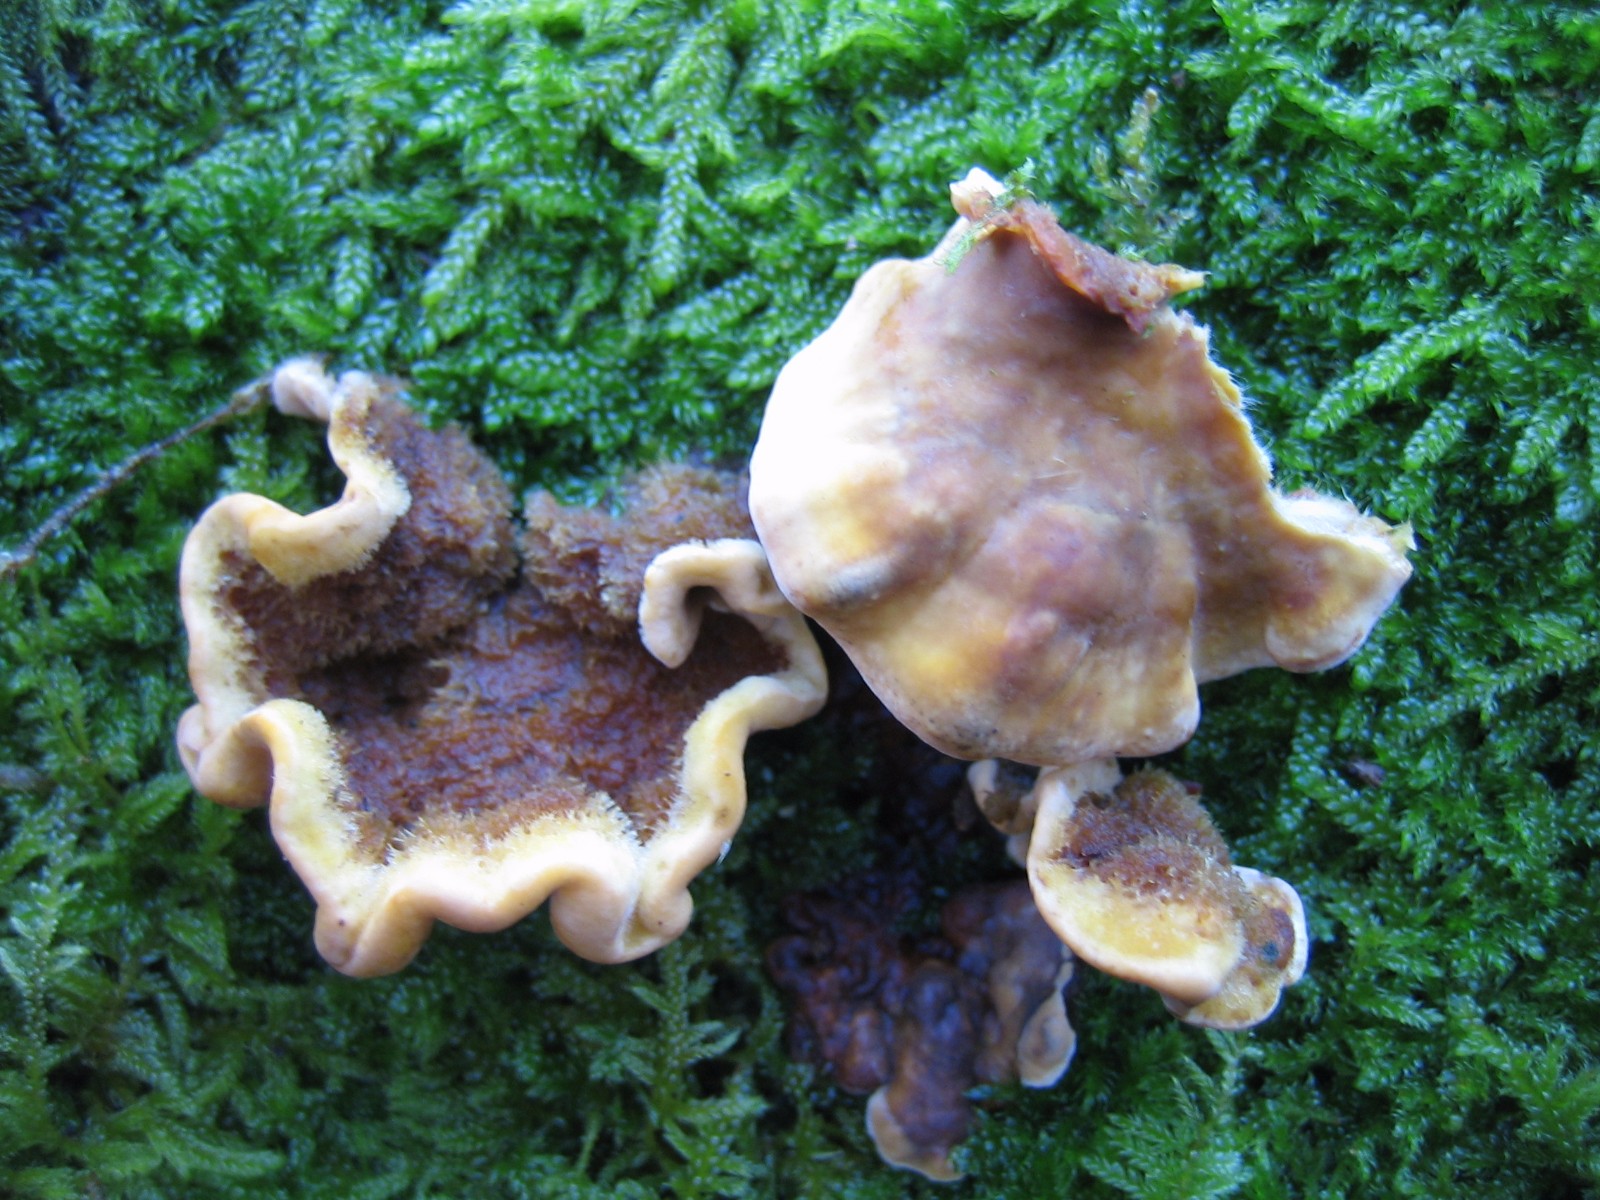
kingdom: Fungi
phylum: Basidiomycota
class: Agaricomycetes
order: Russulales
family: Stereaceae
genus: Stereum
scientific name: Stereum hirsutum
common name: håret lædersvamp
